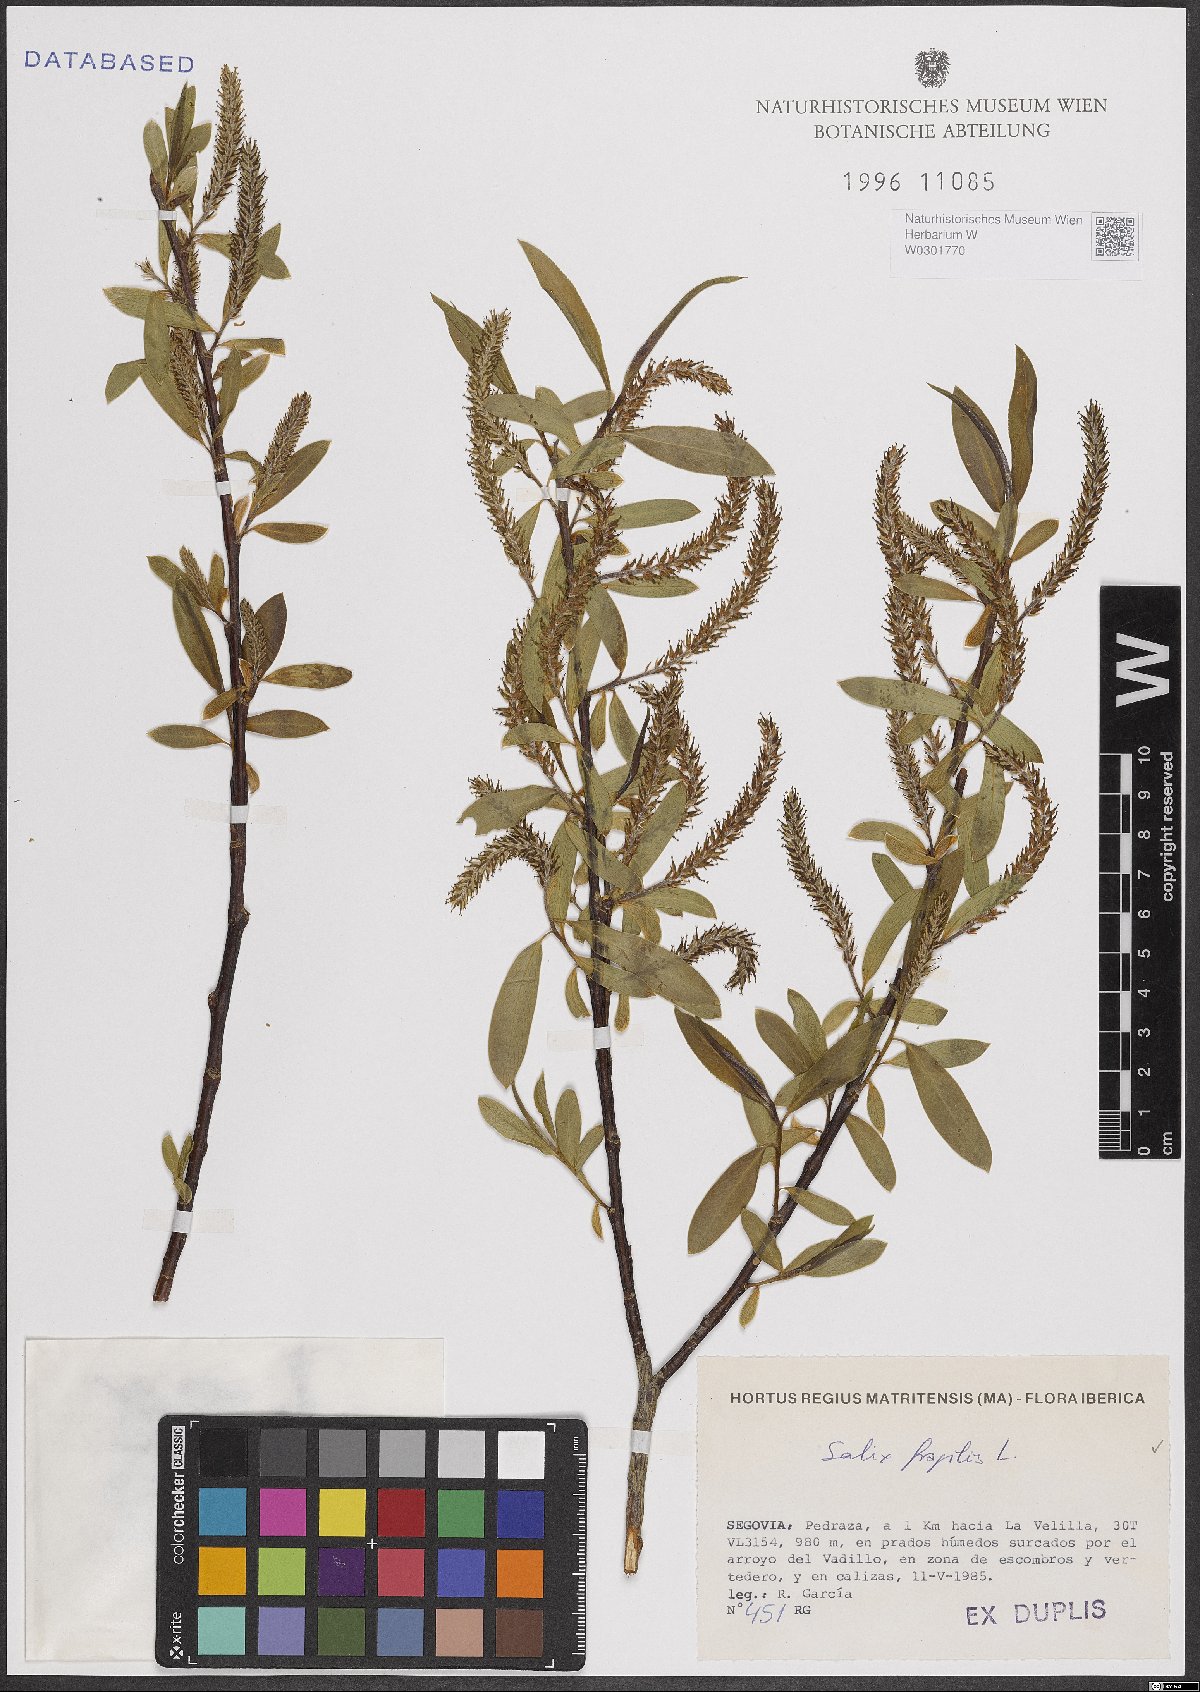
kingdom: Plantae
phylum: Tracheophyta
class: Magnoliopsida
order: Malpighiales
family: Salicaceae
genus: Salix
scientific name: Salix fragilis
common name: Crack willow
